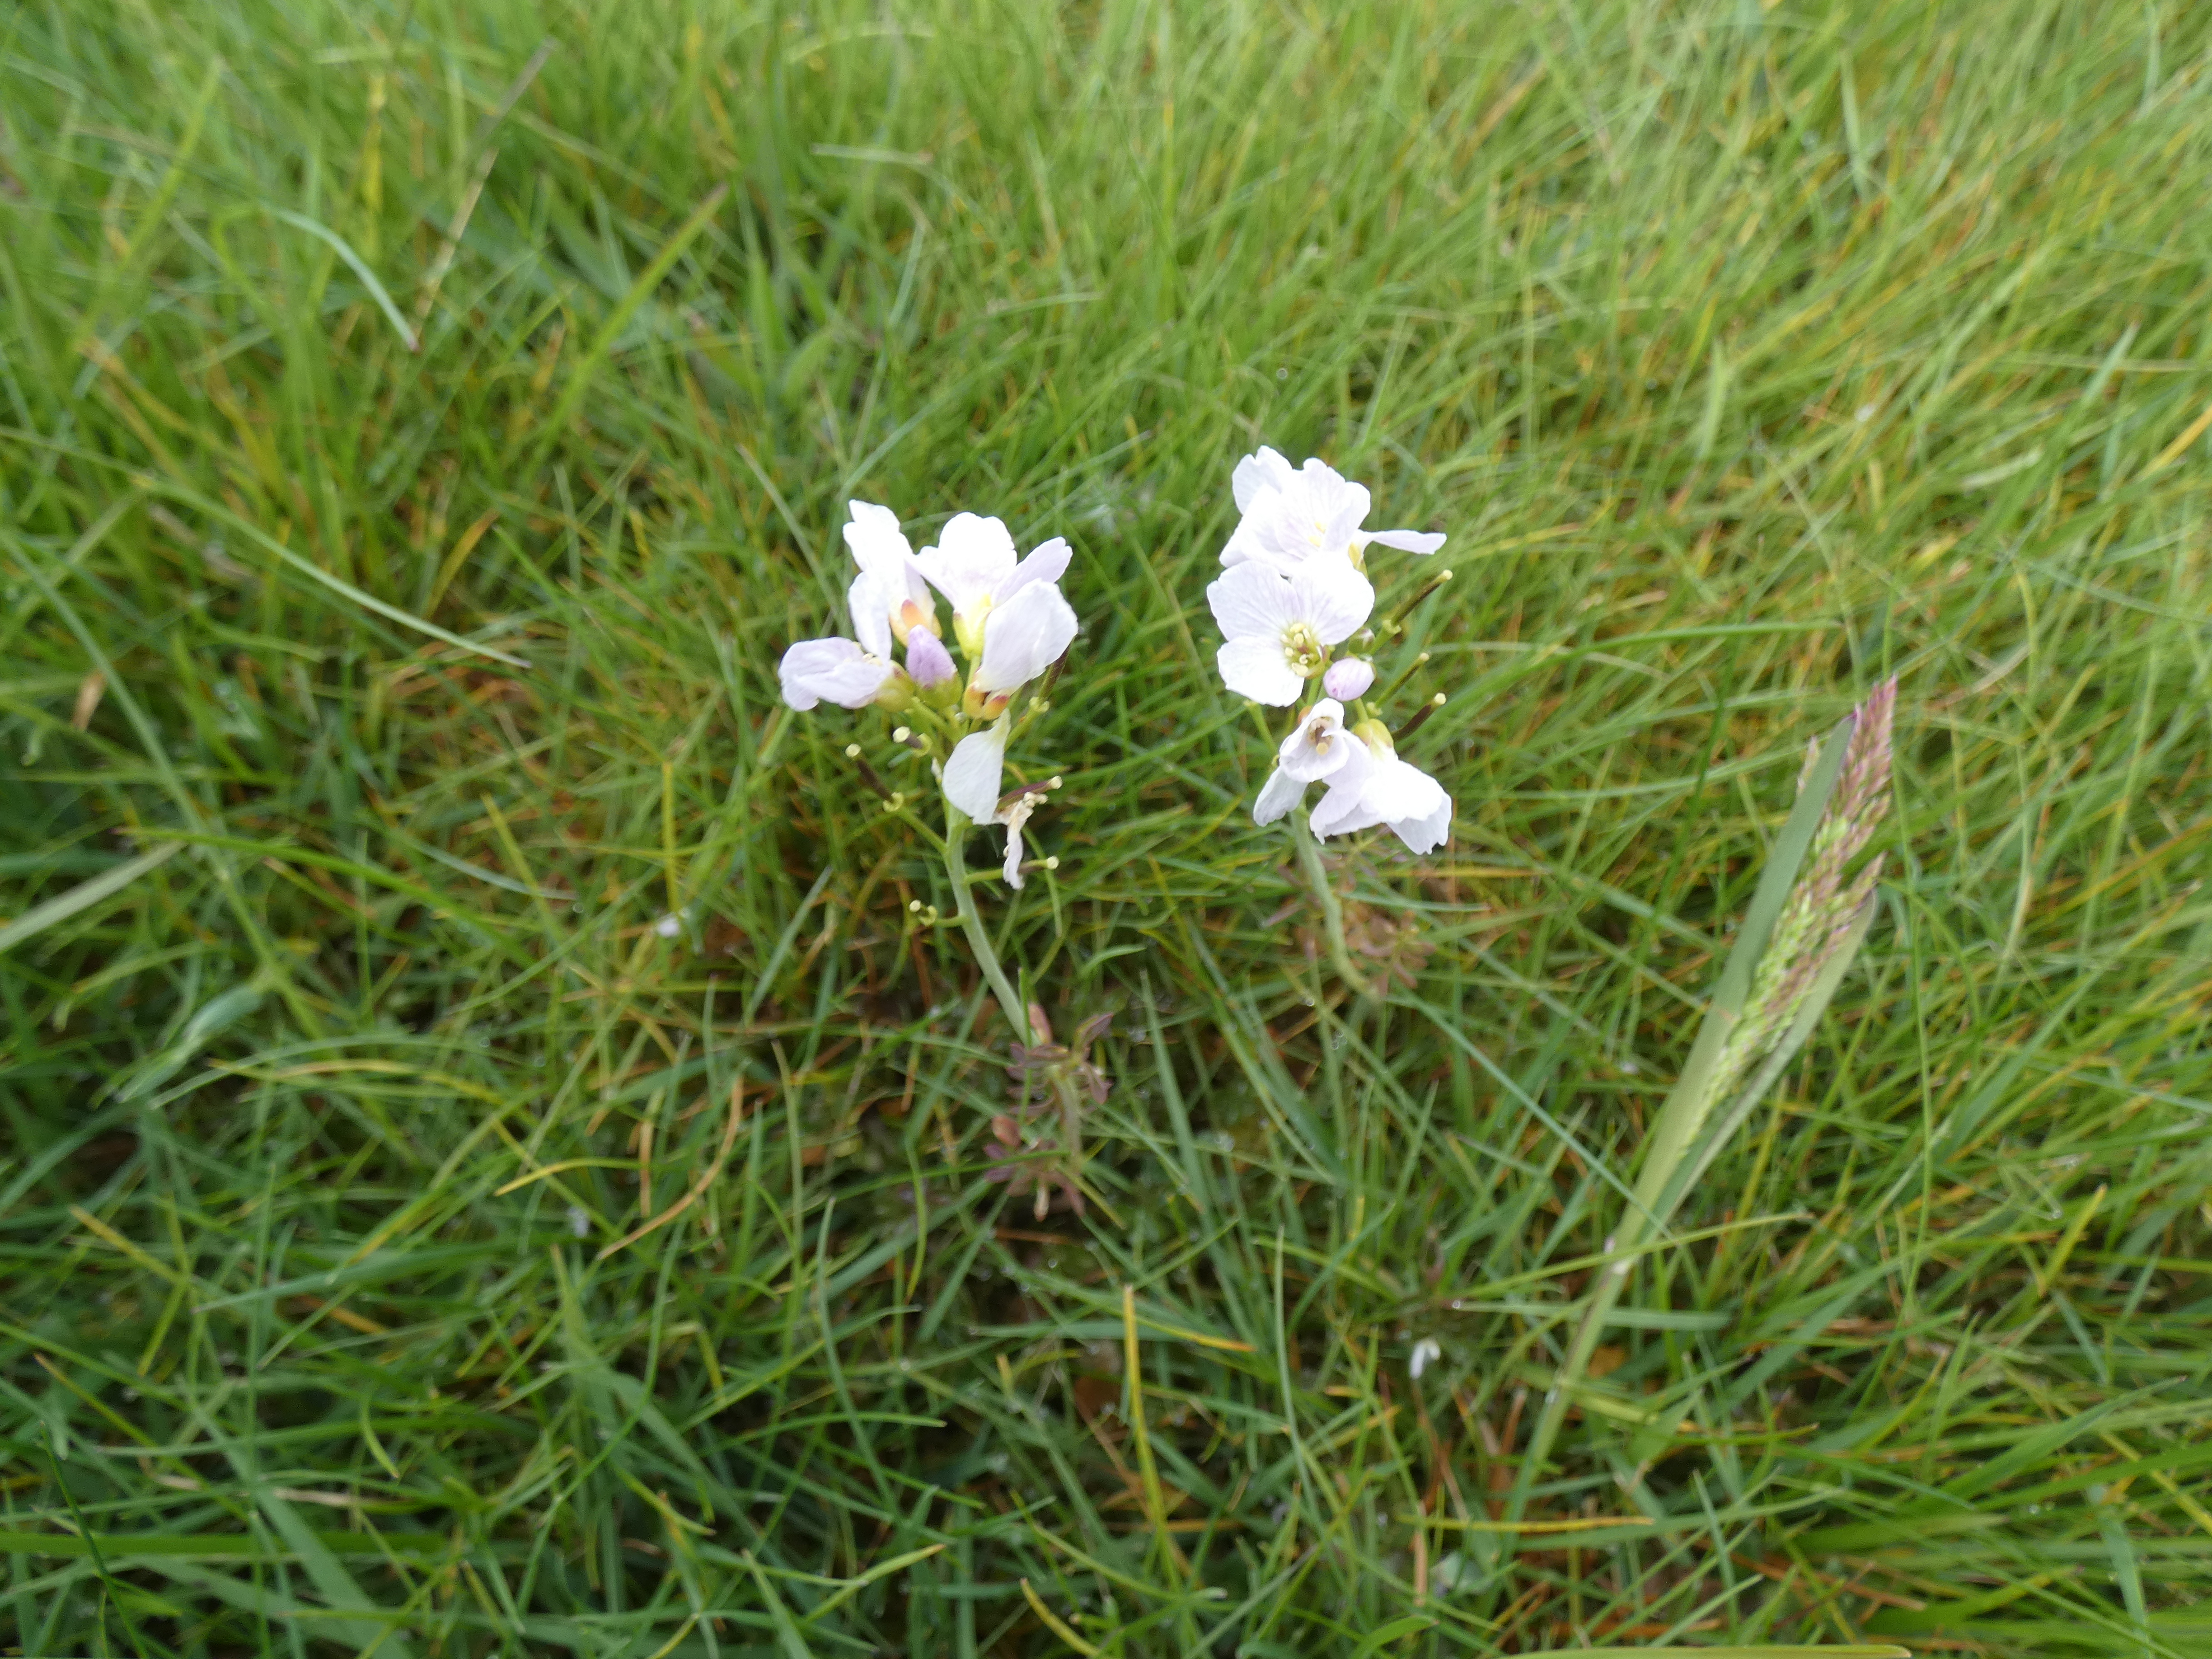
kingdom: Plantae
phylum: Tracheophyta
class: Magnoliopsida
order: Brassicales
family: Brassicaceae
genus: Cardamine
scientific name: Cardamine pratensis
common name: Engkarse
